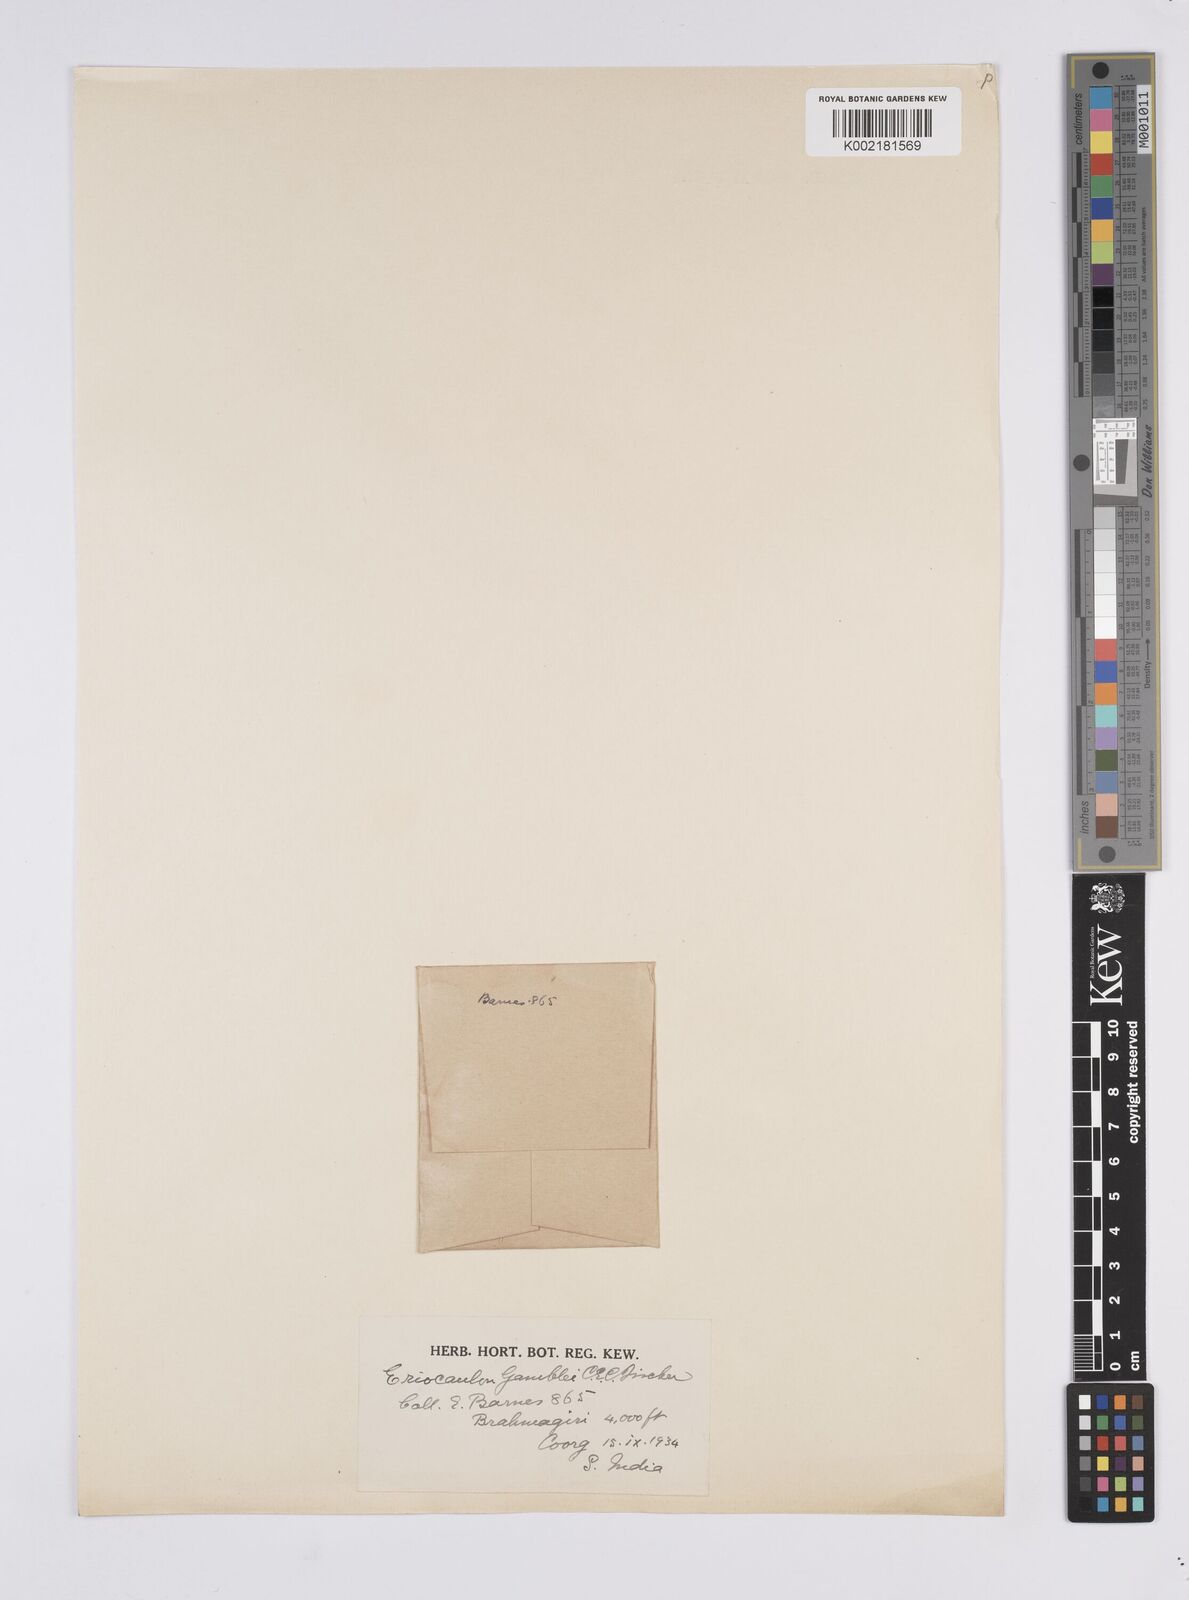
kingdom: Plantae
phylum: Tracheophyta
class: Liliopsida
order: Poales
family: Eriocaulaceae
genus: Eriocaulon
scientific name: Eriocaulon thwaitesii
